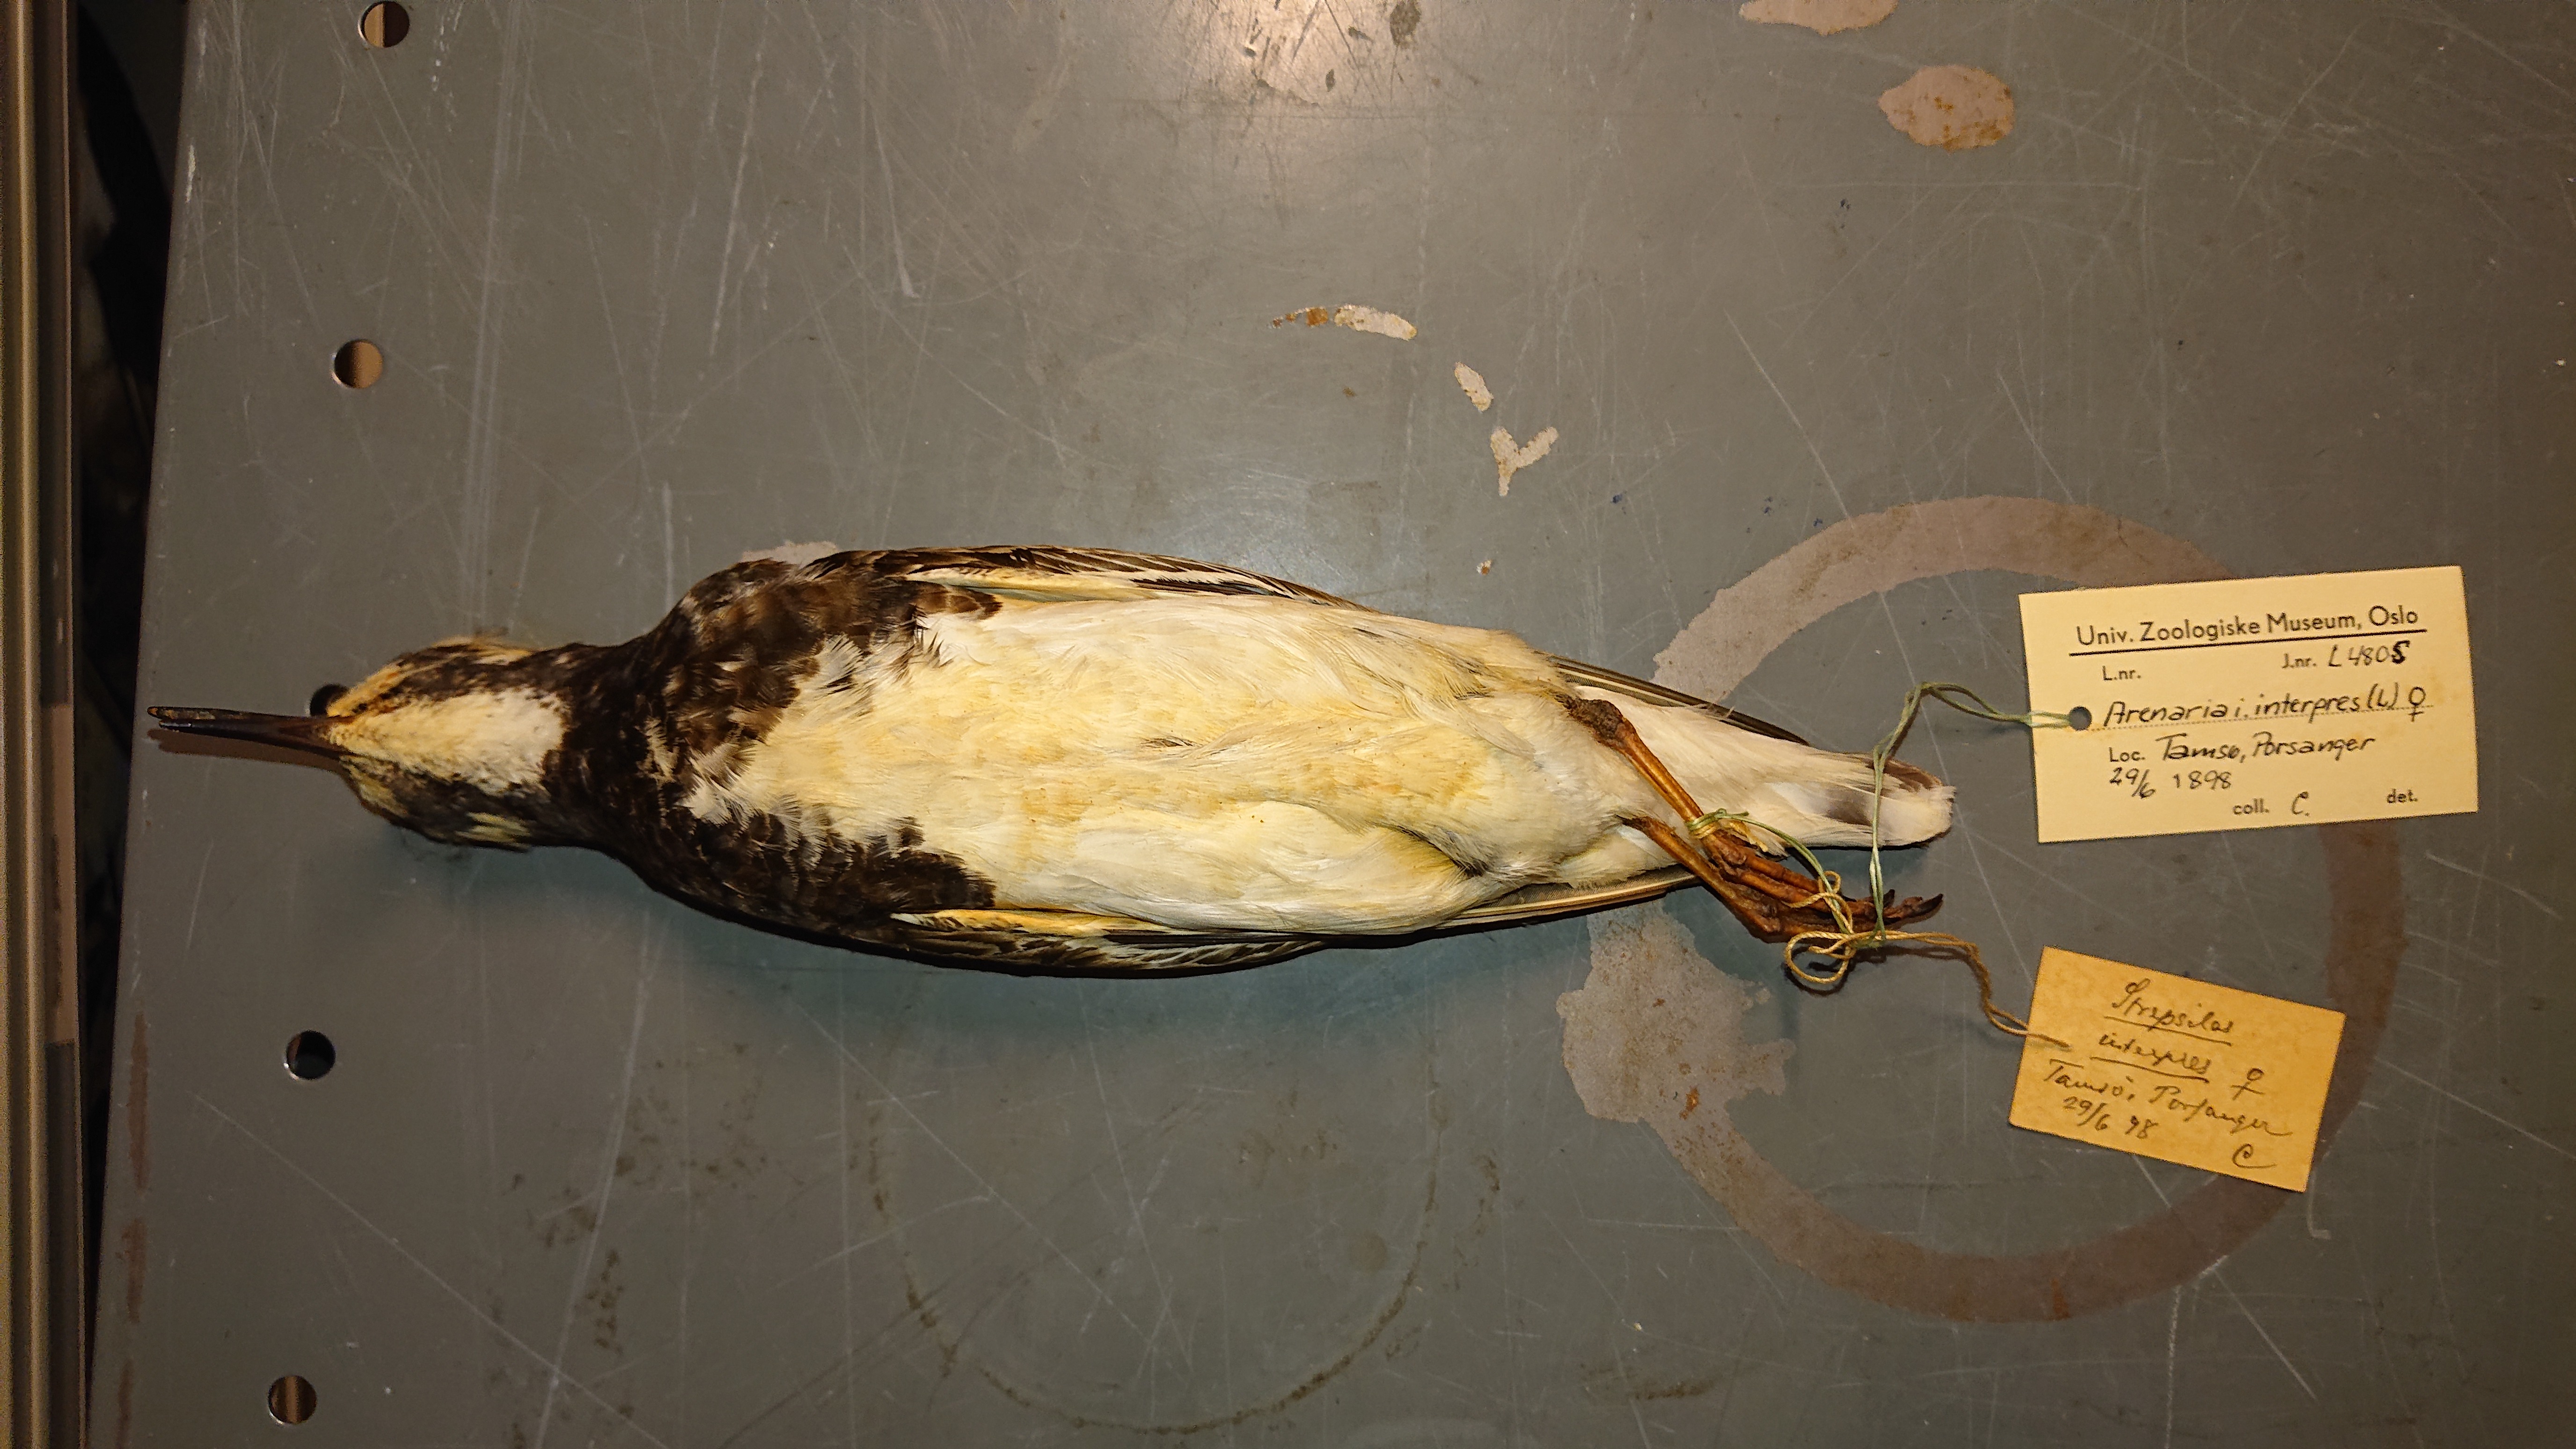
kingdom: Animalia
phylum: Chordata
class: Aves
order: Charadriiformes
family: Scolopacidae
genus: Arenaria
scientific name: Arenaria interpres
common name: Ruddy turnstone
